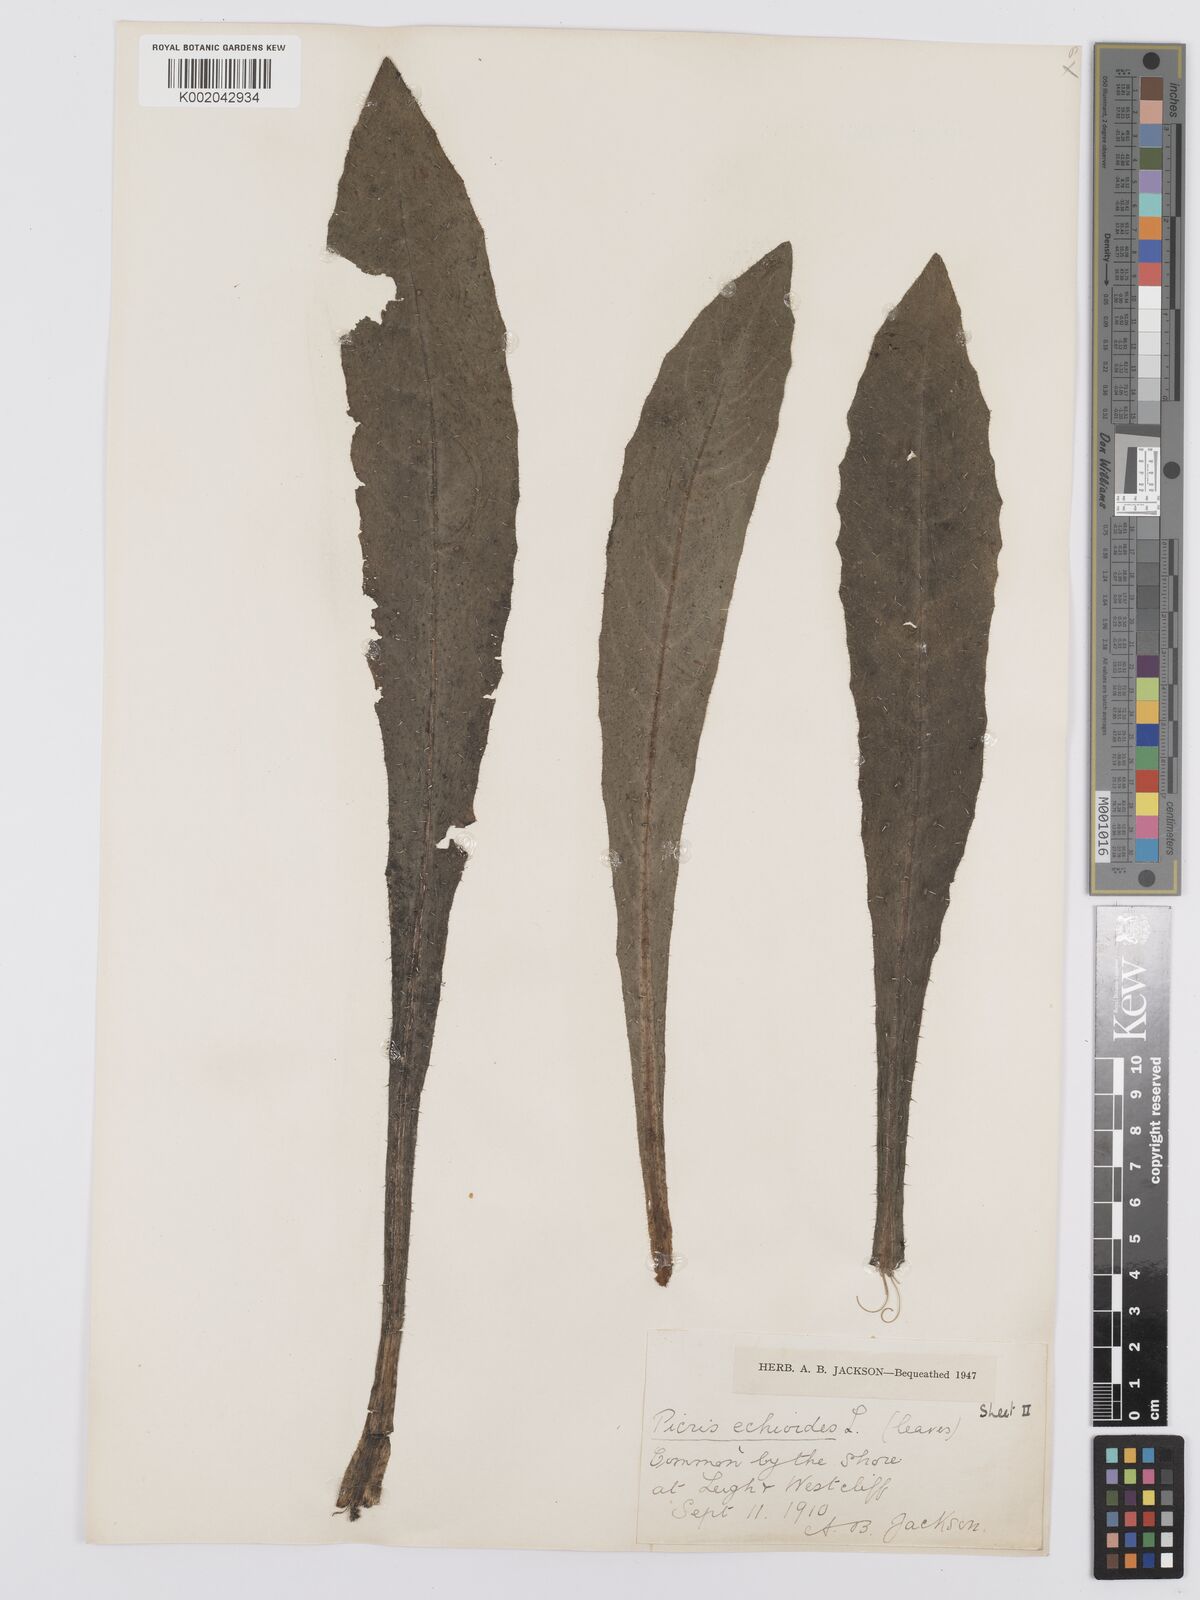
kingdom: Plantae
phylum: Tracheophyta
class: Magnoliopsida
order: Asterales
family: Asteraceae
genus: Helminthotheca
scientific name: Helminthotheca echioides
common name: Ox-tongue
